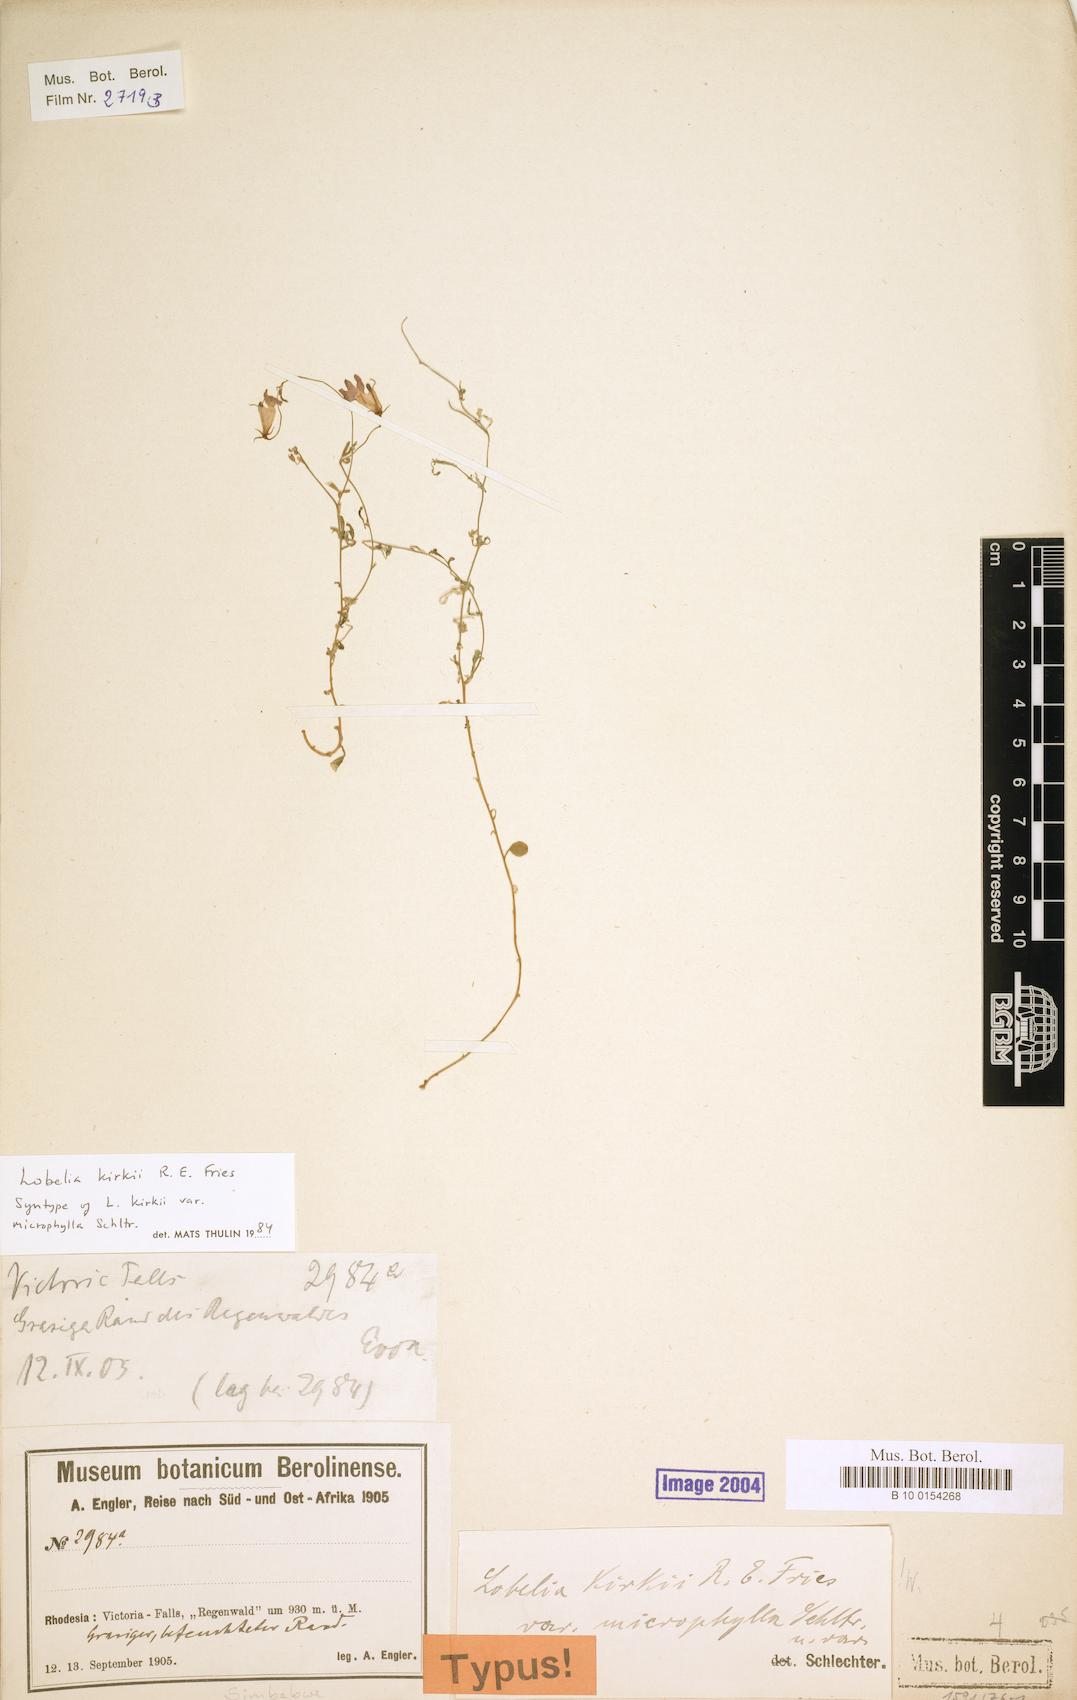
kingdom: Plantae
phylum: Tracheophyta
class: Magnoliopsida
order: Asterales
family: Campanulaceae
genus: Lobelia
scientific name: Lobelia kirkii
